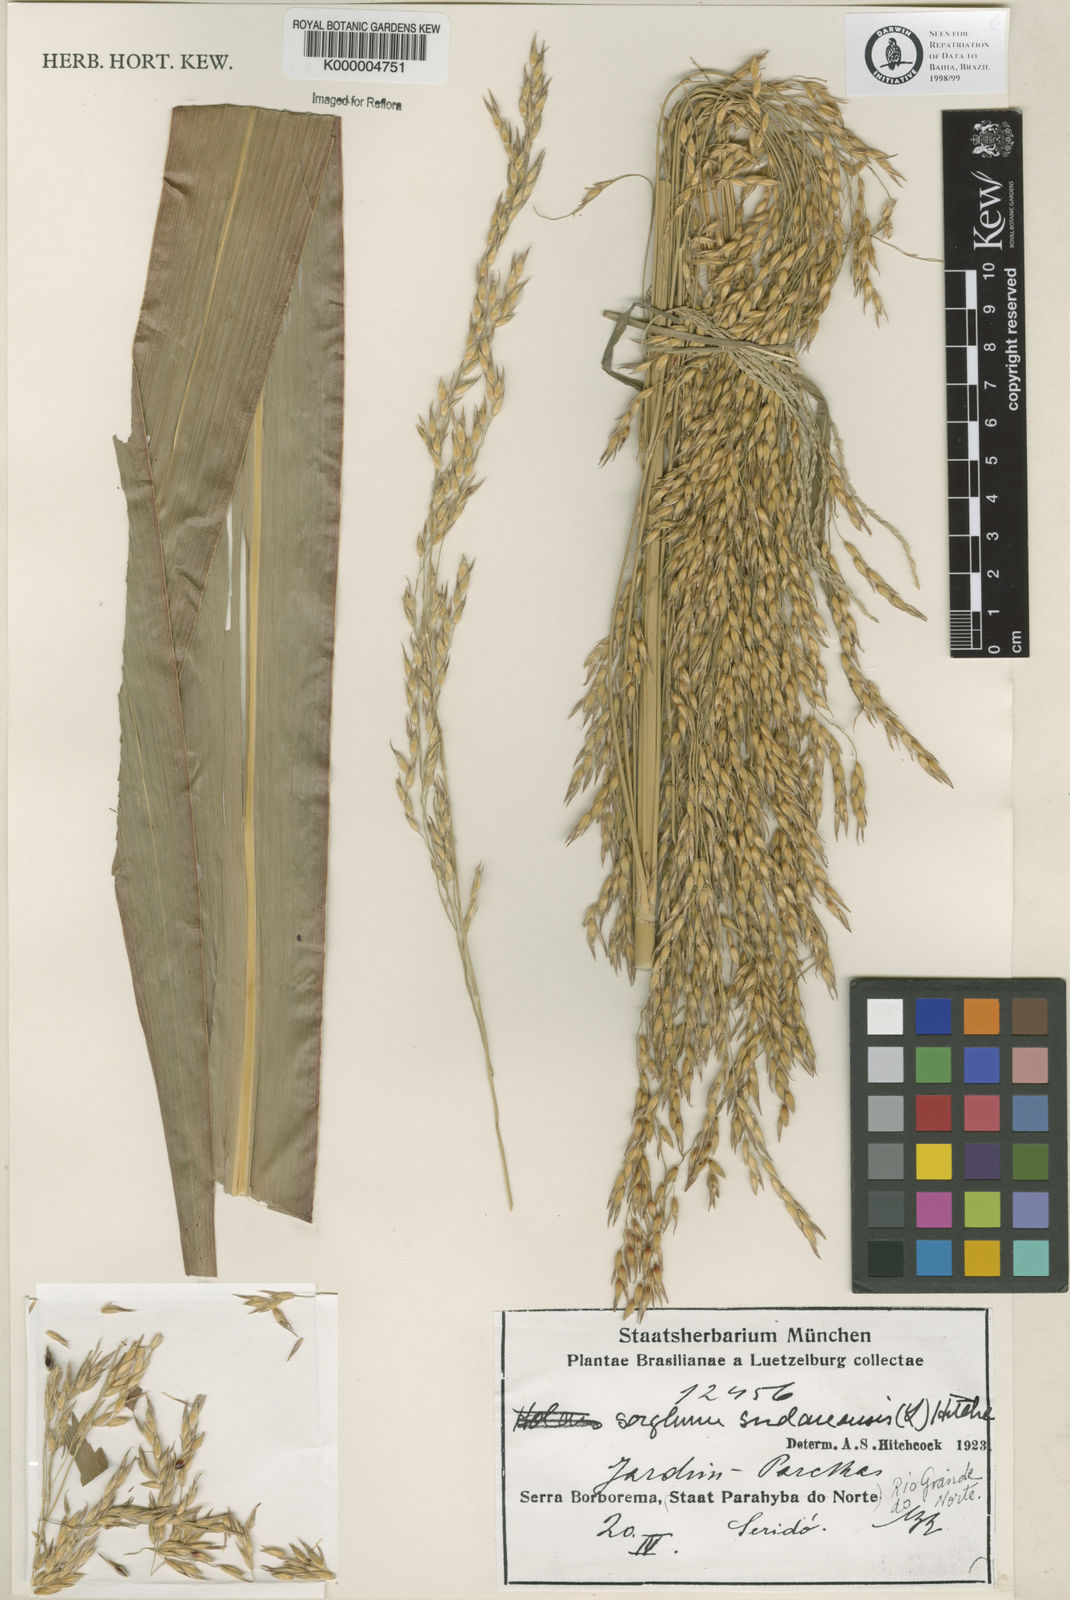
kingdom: Plantae
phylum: Tracheophyta
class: Liliopsida
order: Poales
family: Poaceae
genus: Sorghum
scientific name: Sorghum halepense
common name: Johnson-grass
